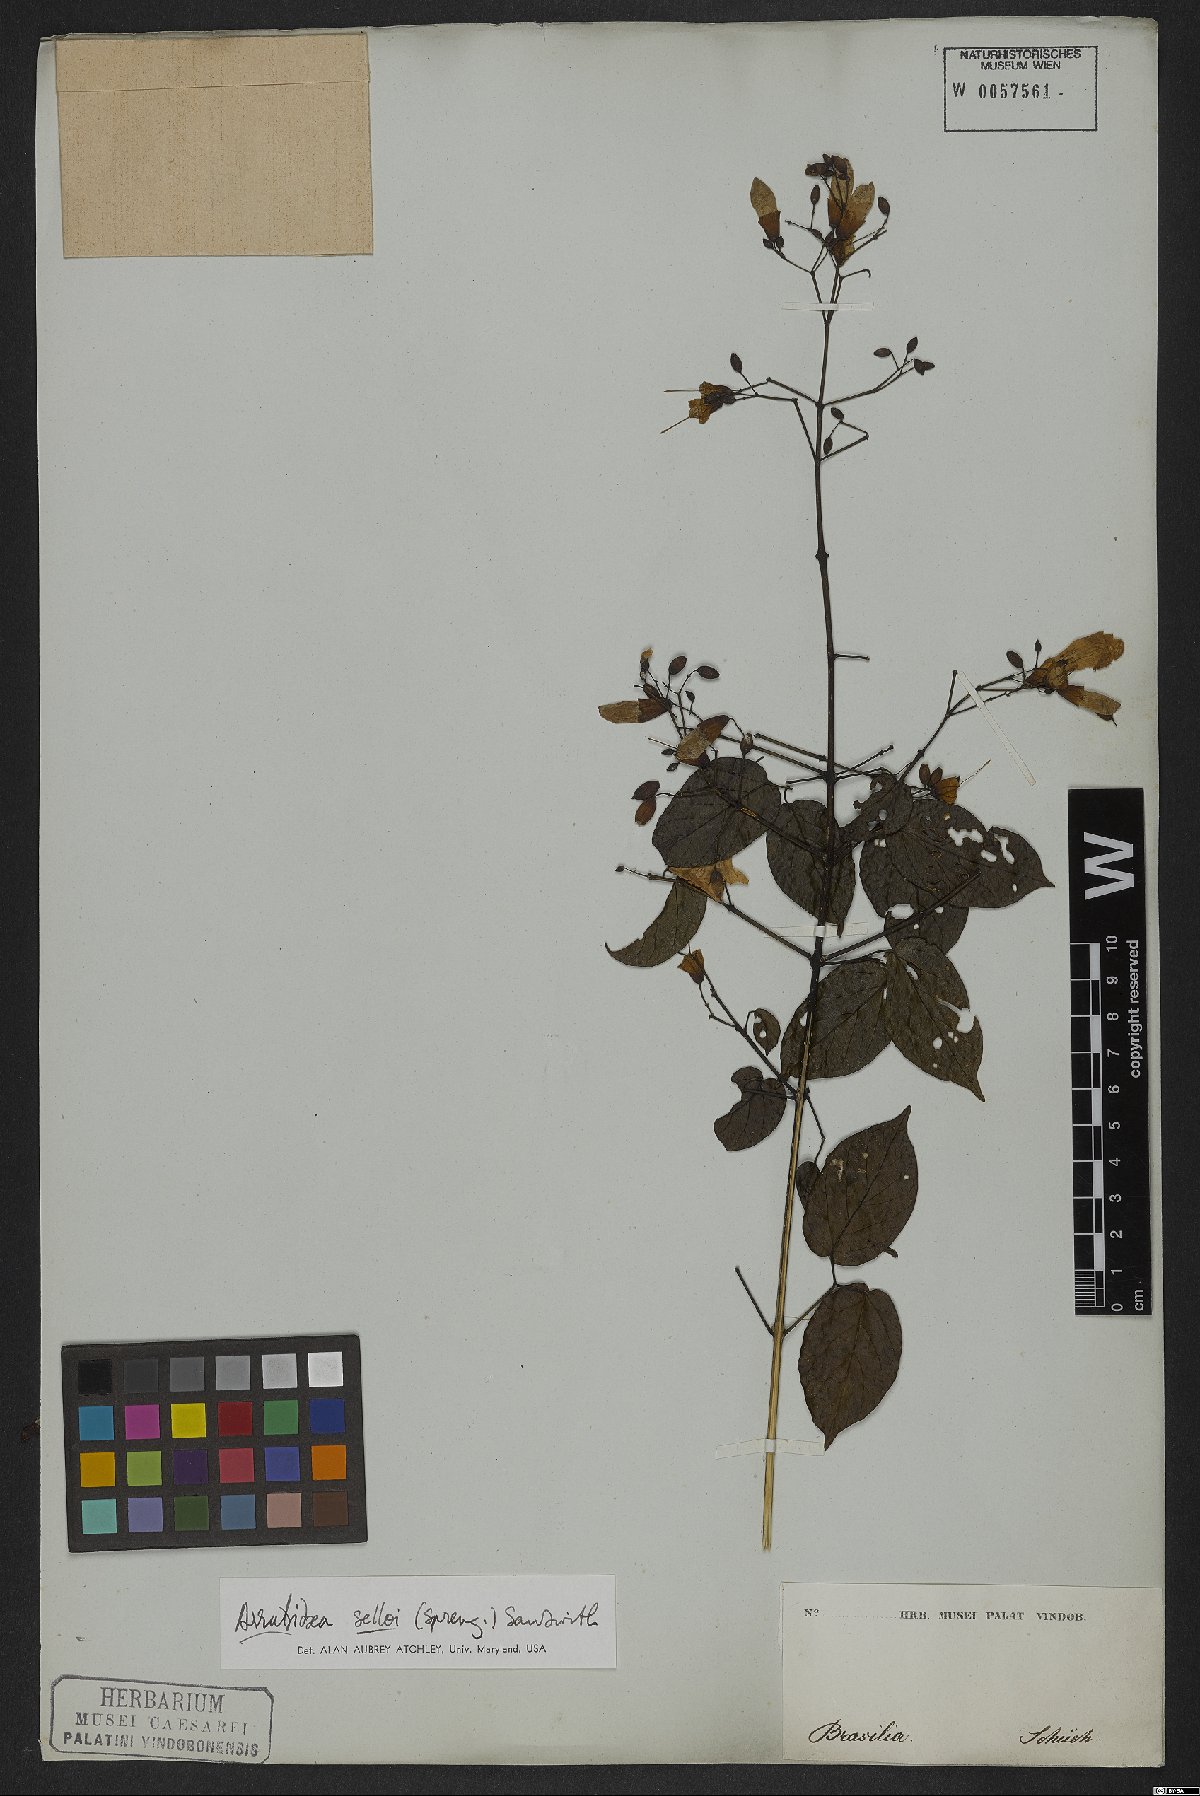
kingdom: Plantae
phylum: Tracheophyta
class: Magnoliopsida
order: Lamiales
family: Bignoniaceae
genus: Tanaecium
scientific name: Tanaecium selloi
